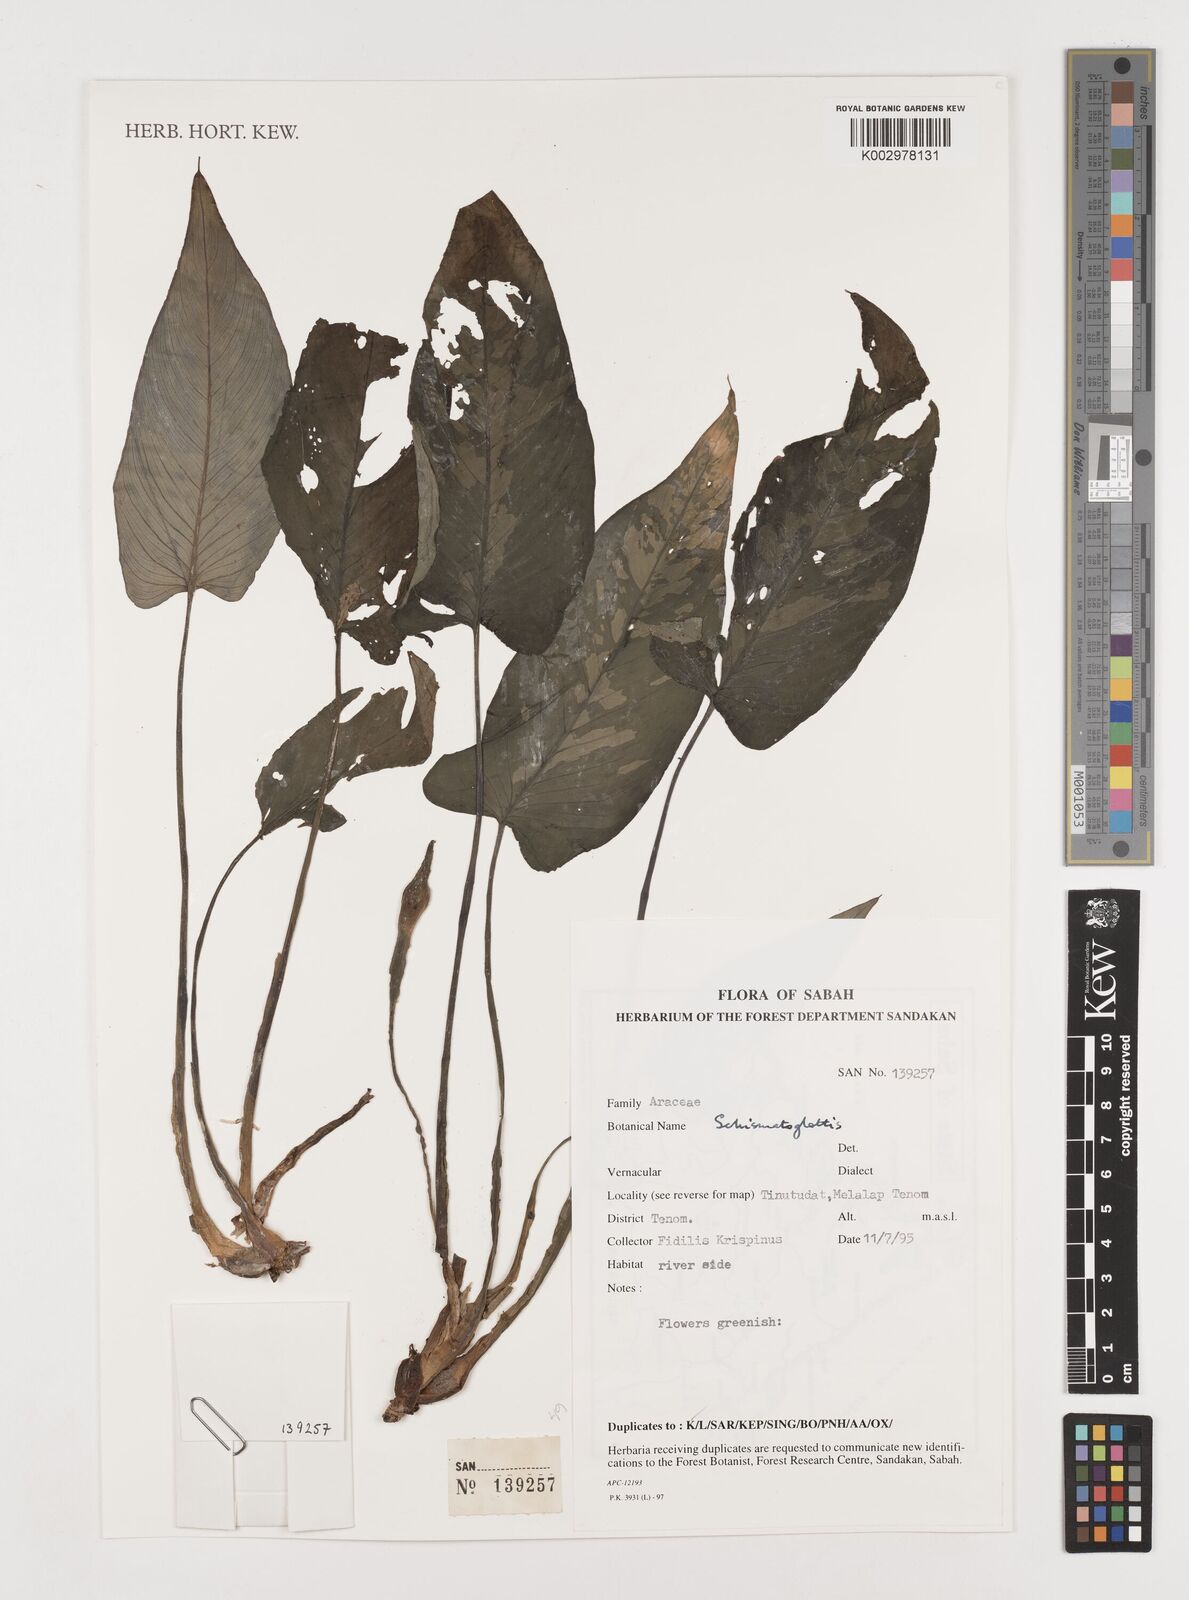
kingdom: Plantae
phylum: Tracheophyta
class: Liliopsida
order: Alismatales
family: Araceae
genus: Schismatoglottis
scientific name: Schismatoglottis
